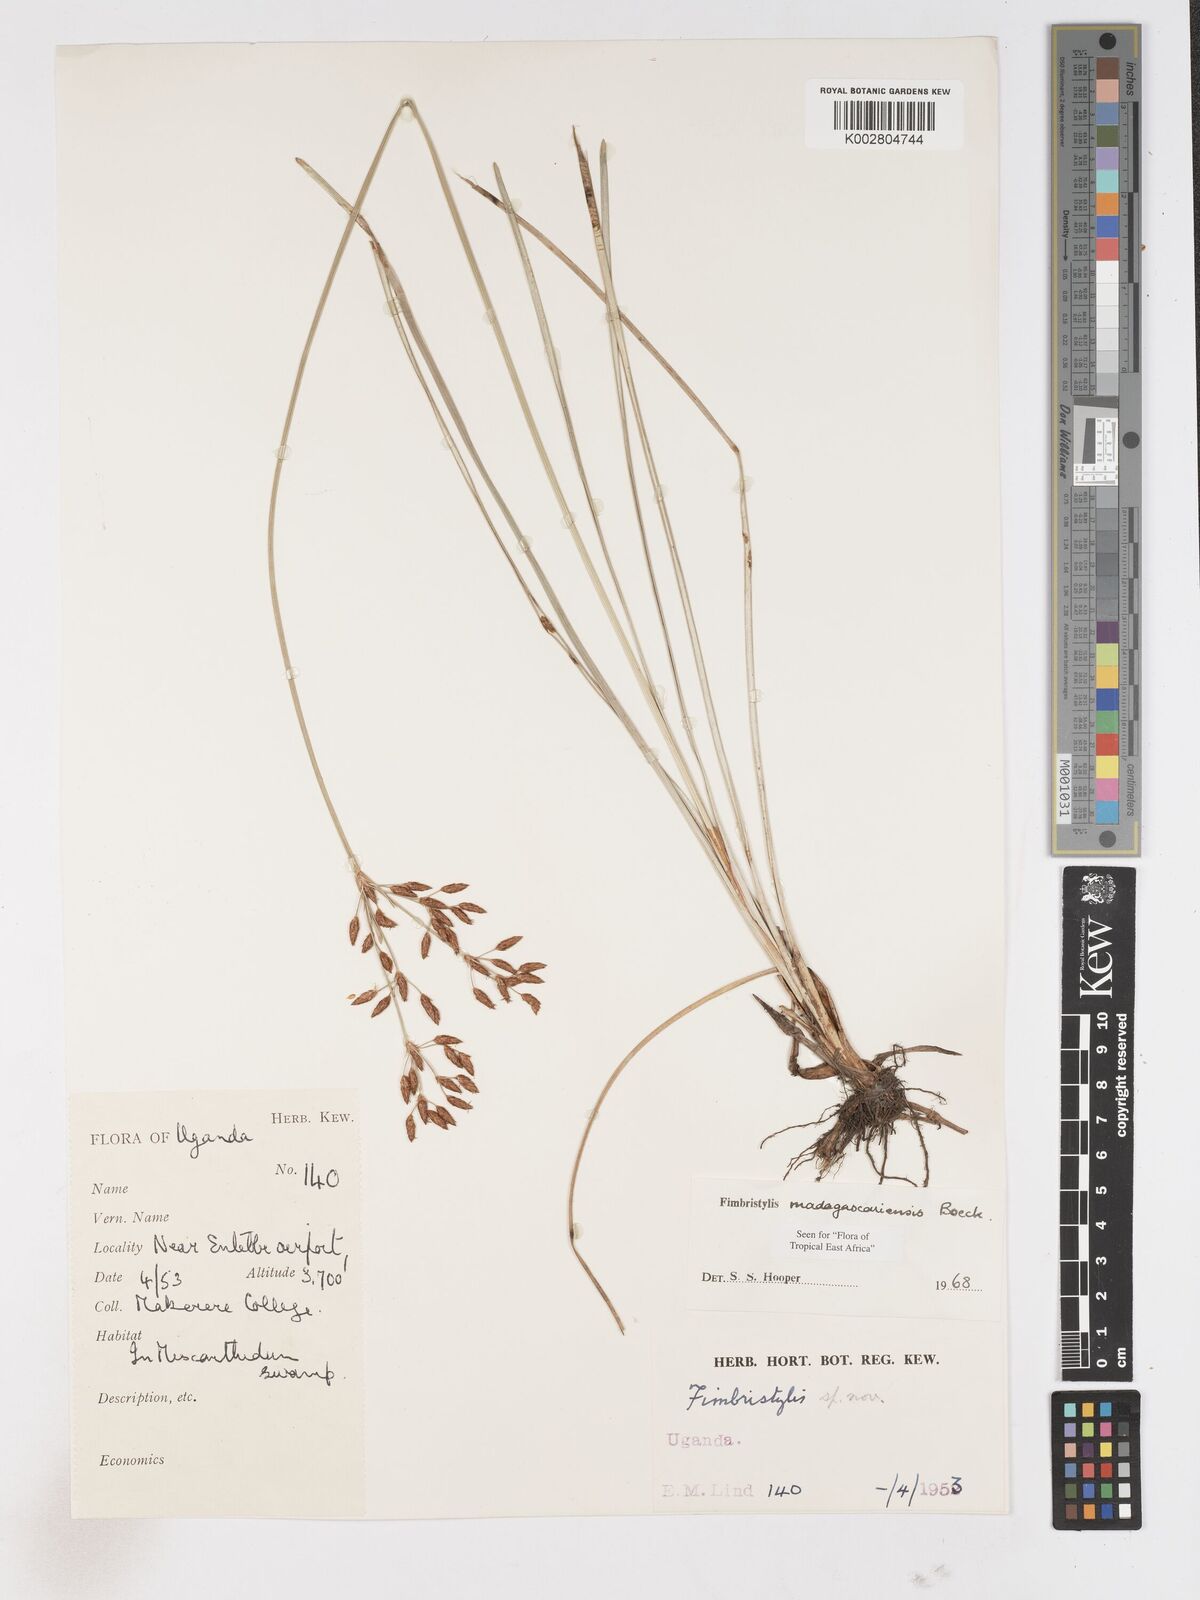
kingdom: Plantae
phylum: Tracheophyta
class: Liliopsida
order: Poales
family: Cyperaceae
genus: Fimbristylis
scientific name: Fimbristylis madagascariensis
